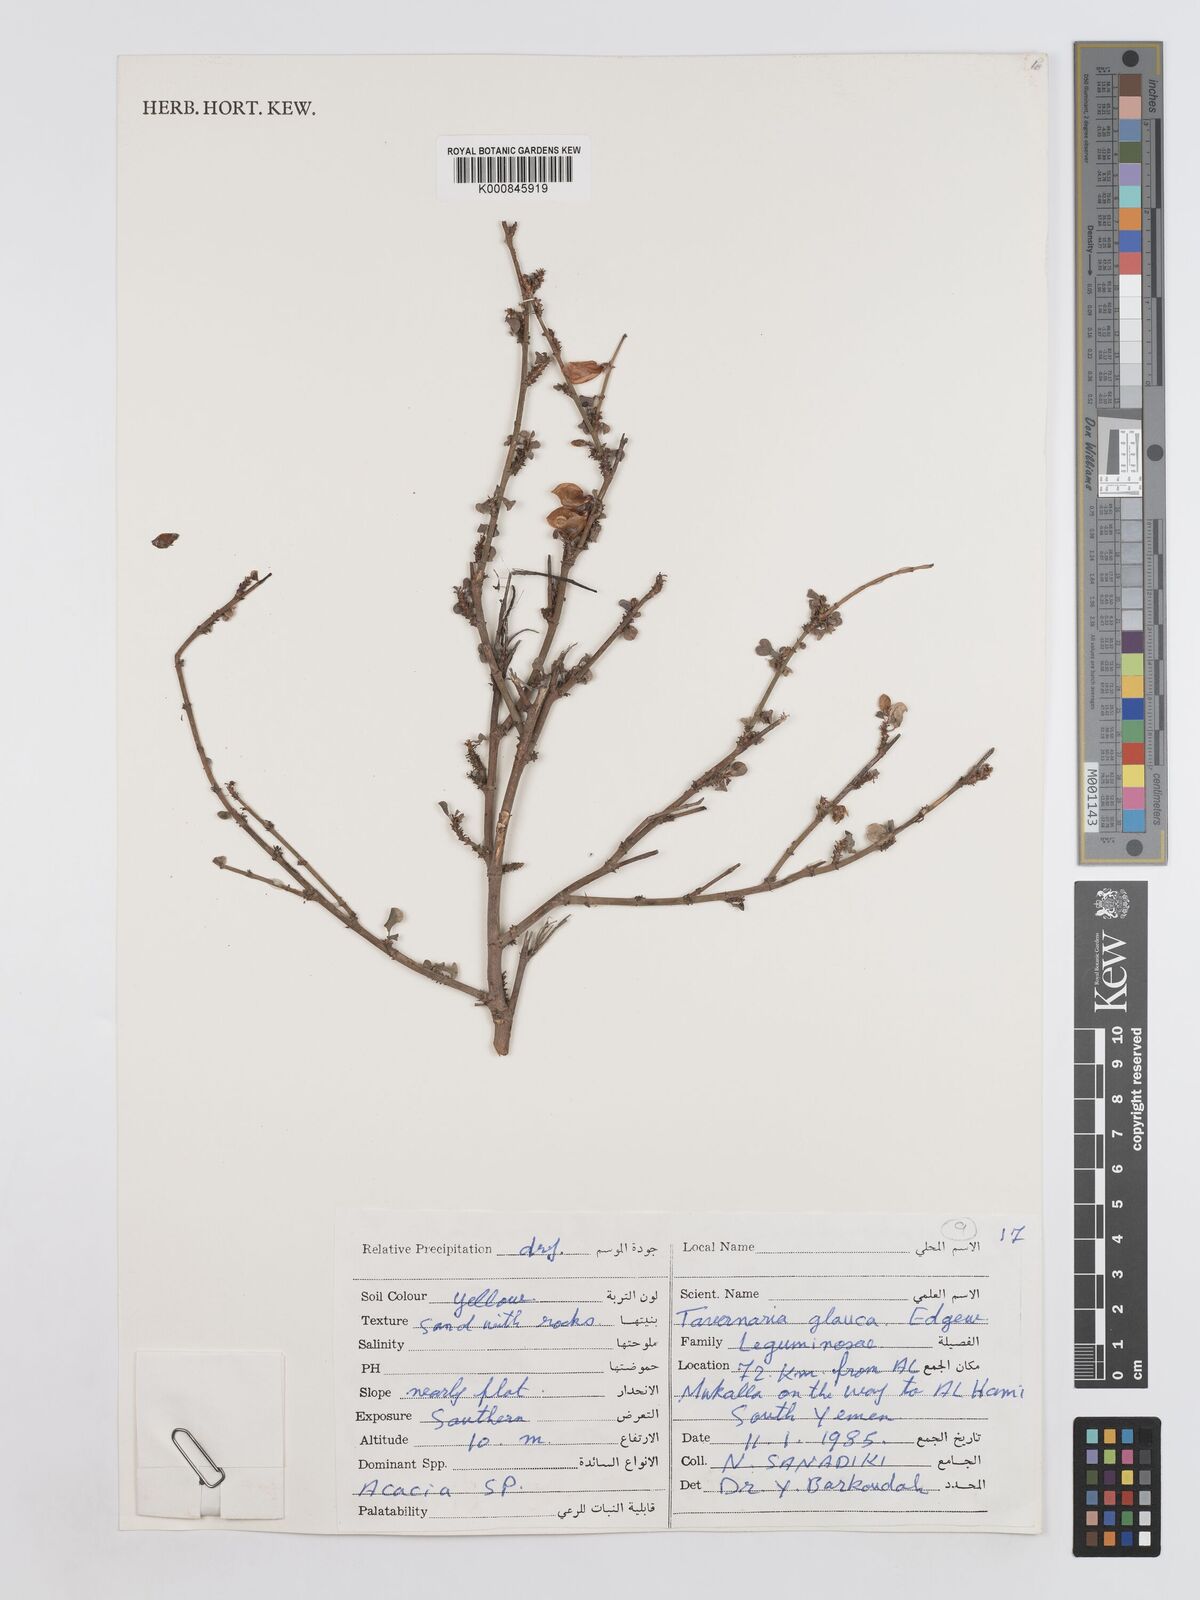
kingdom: Plantae
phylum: Tracheophyta
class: Magnoliopsida
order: Fabales
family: Fabaceae
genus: Taverniera
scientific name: Taverniera glauca
